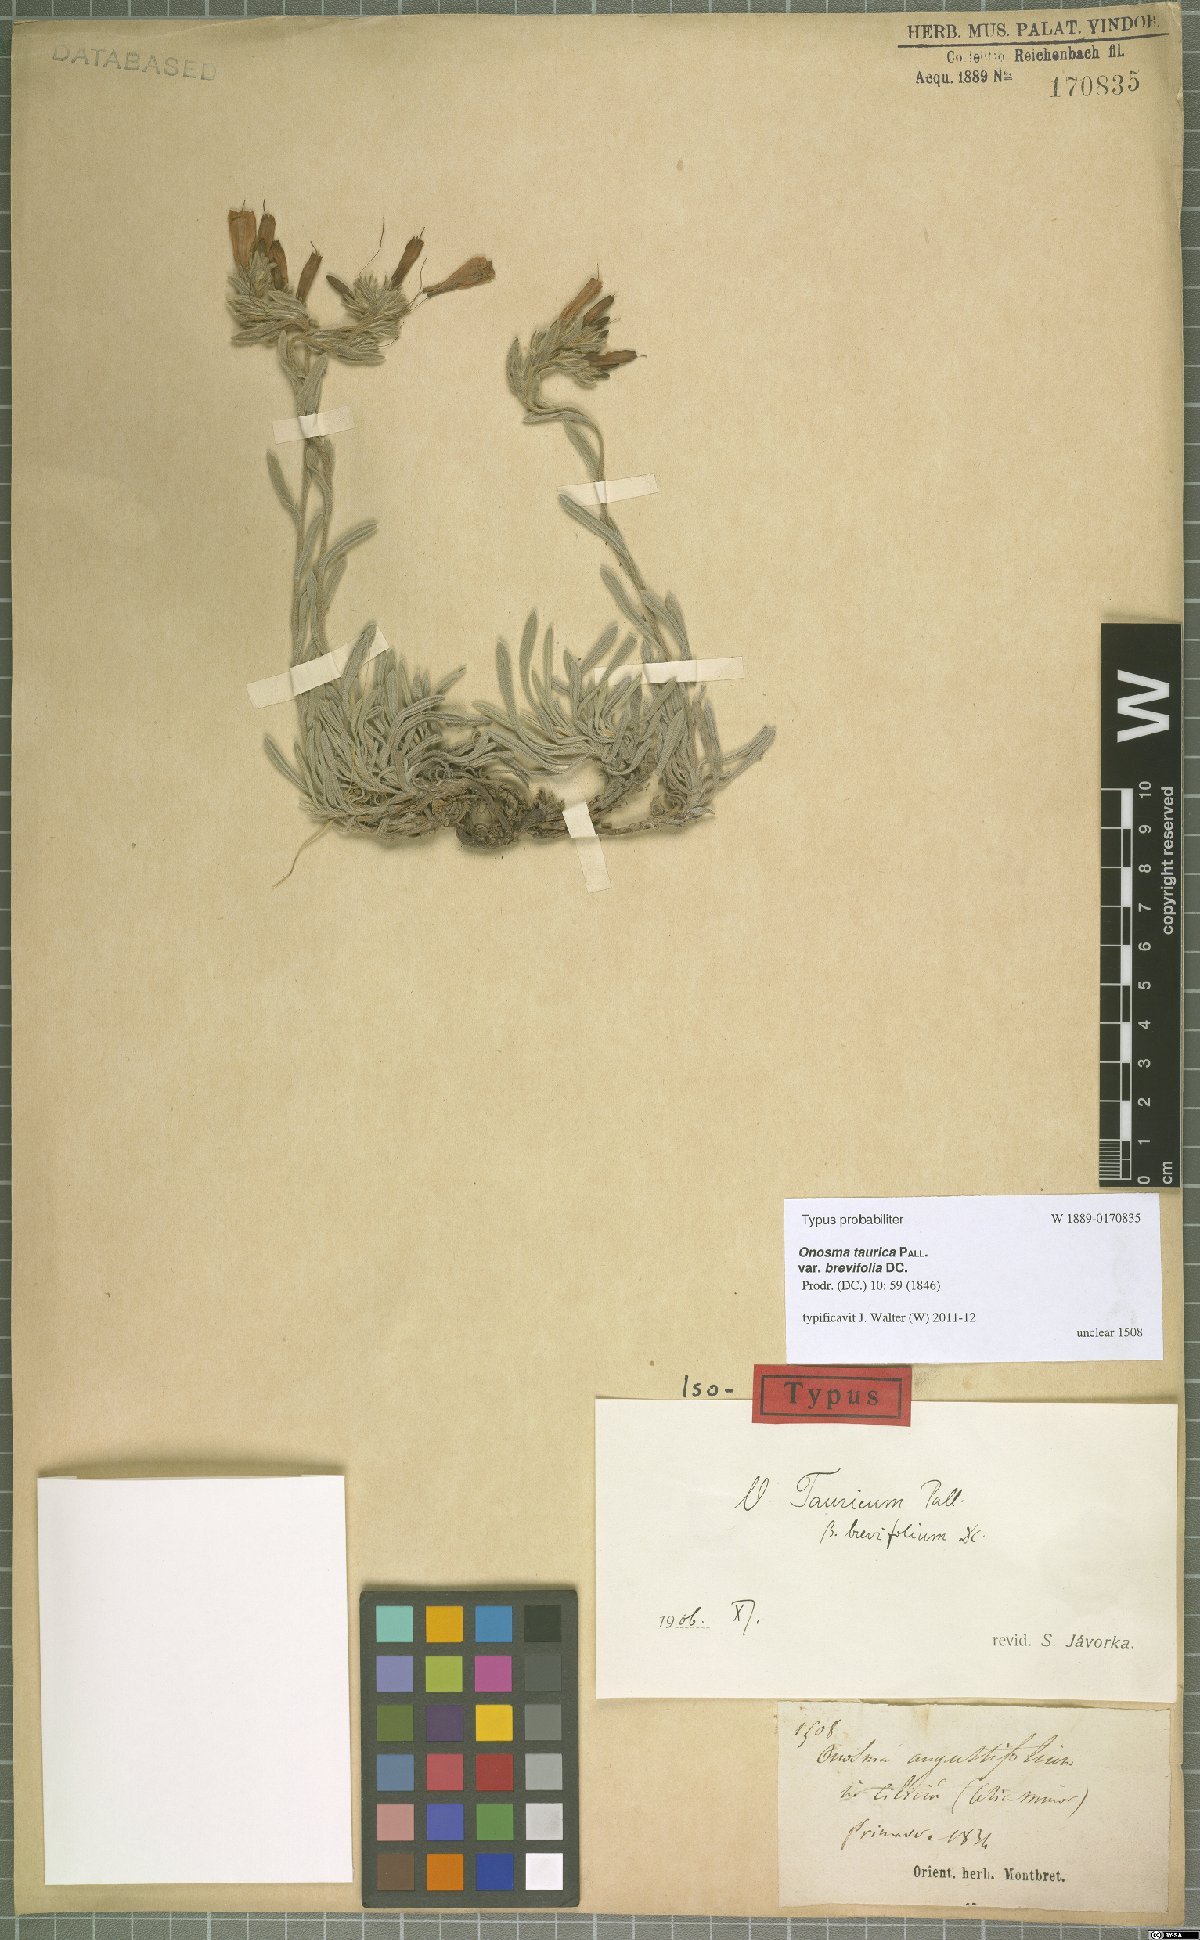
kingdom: Plantae
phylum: Tracheophyta
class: Magnoliopsida
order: Boraginales
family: Boraginaceae
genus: Onosma
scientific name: Onosma cinerea
